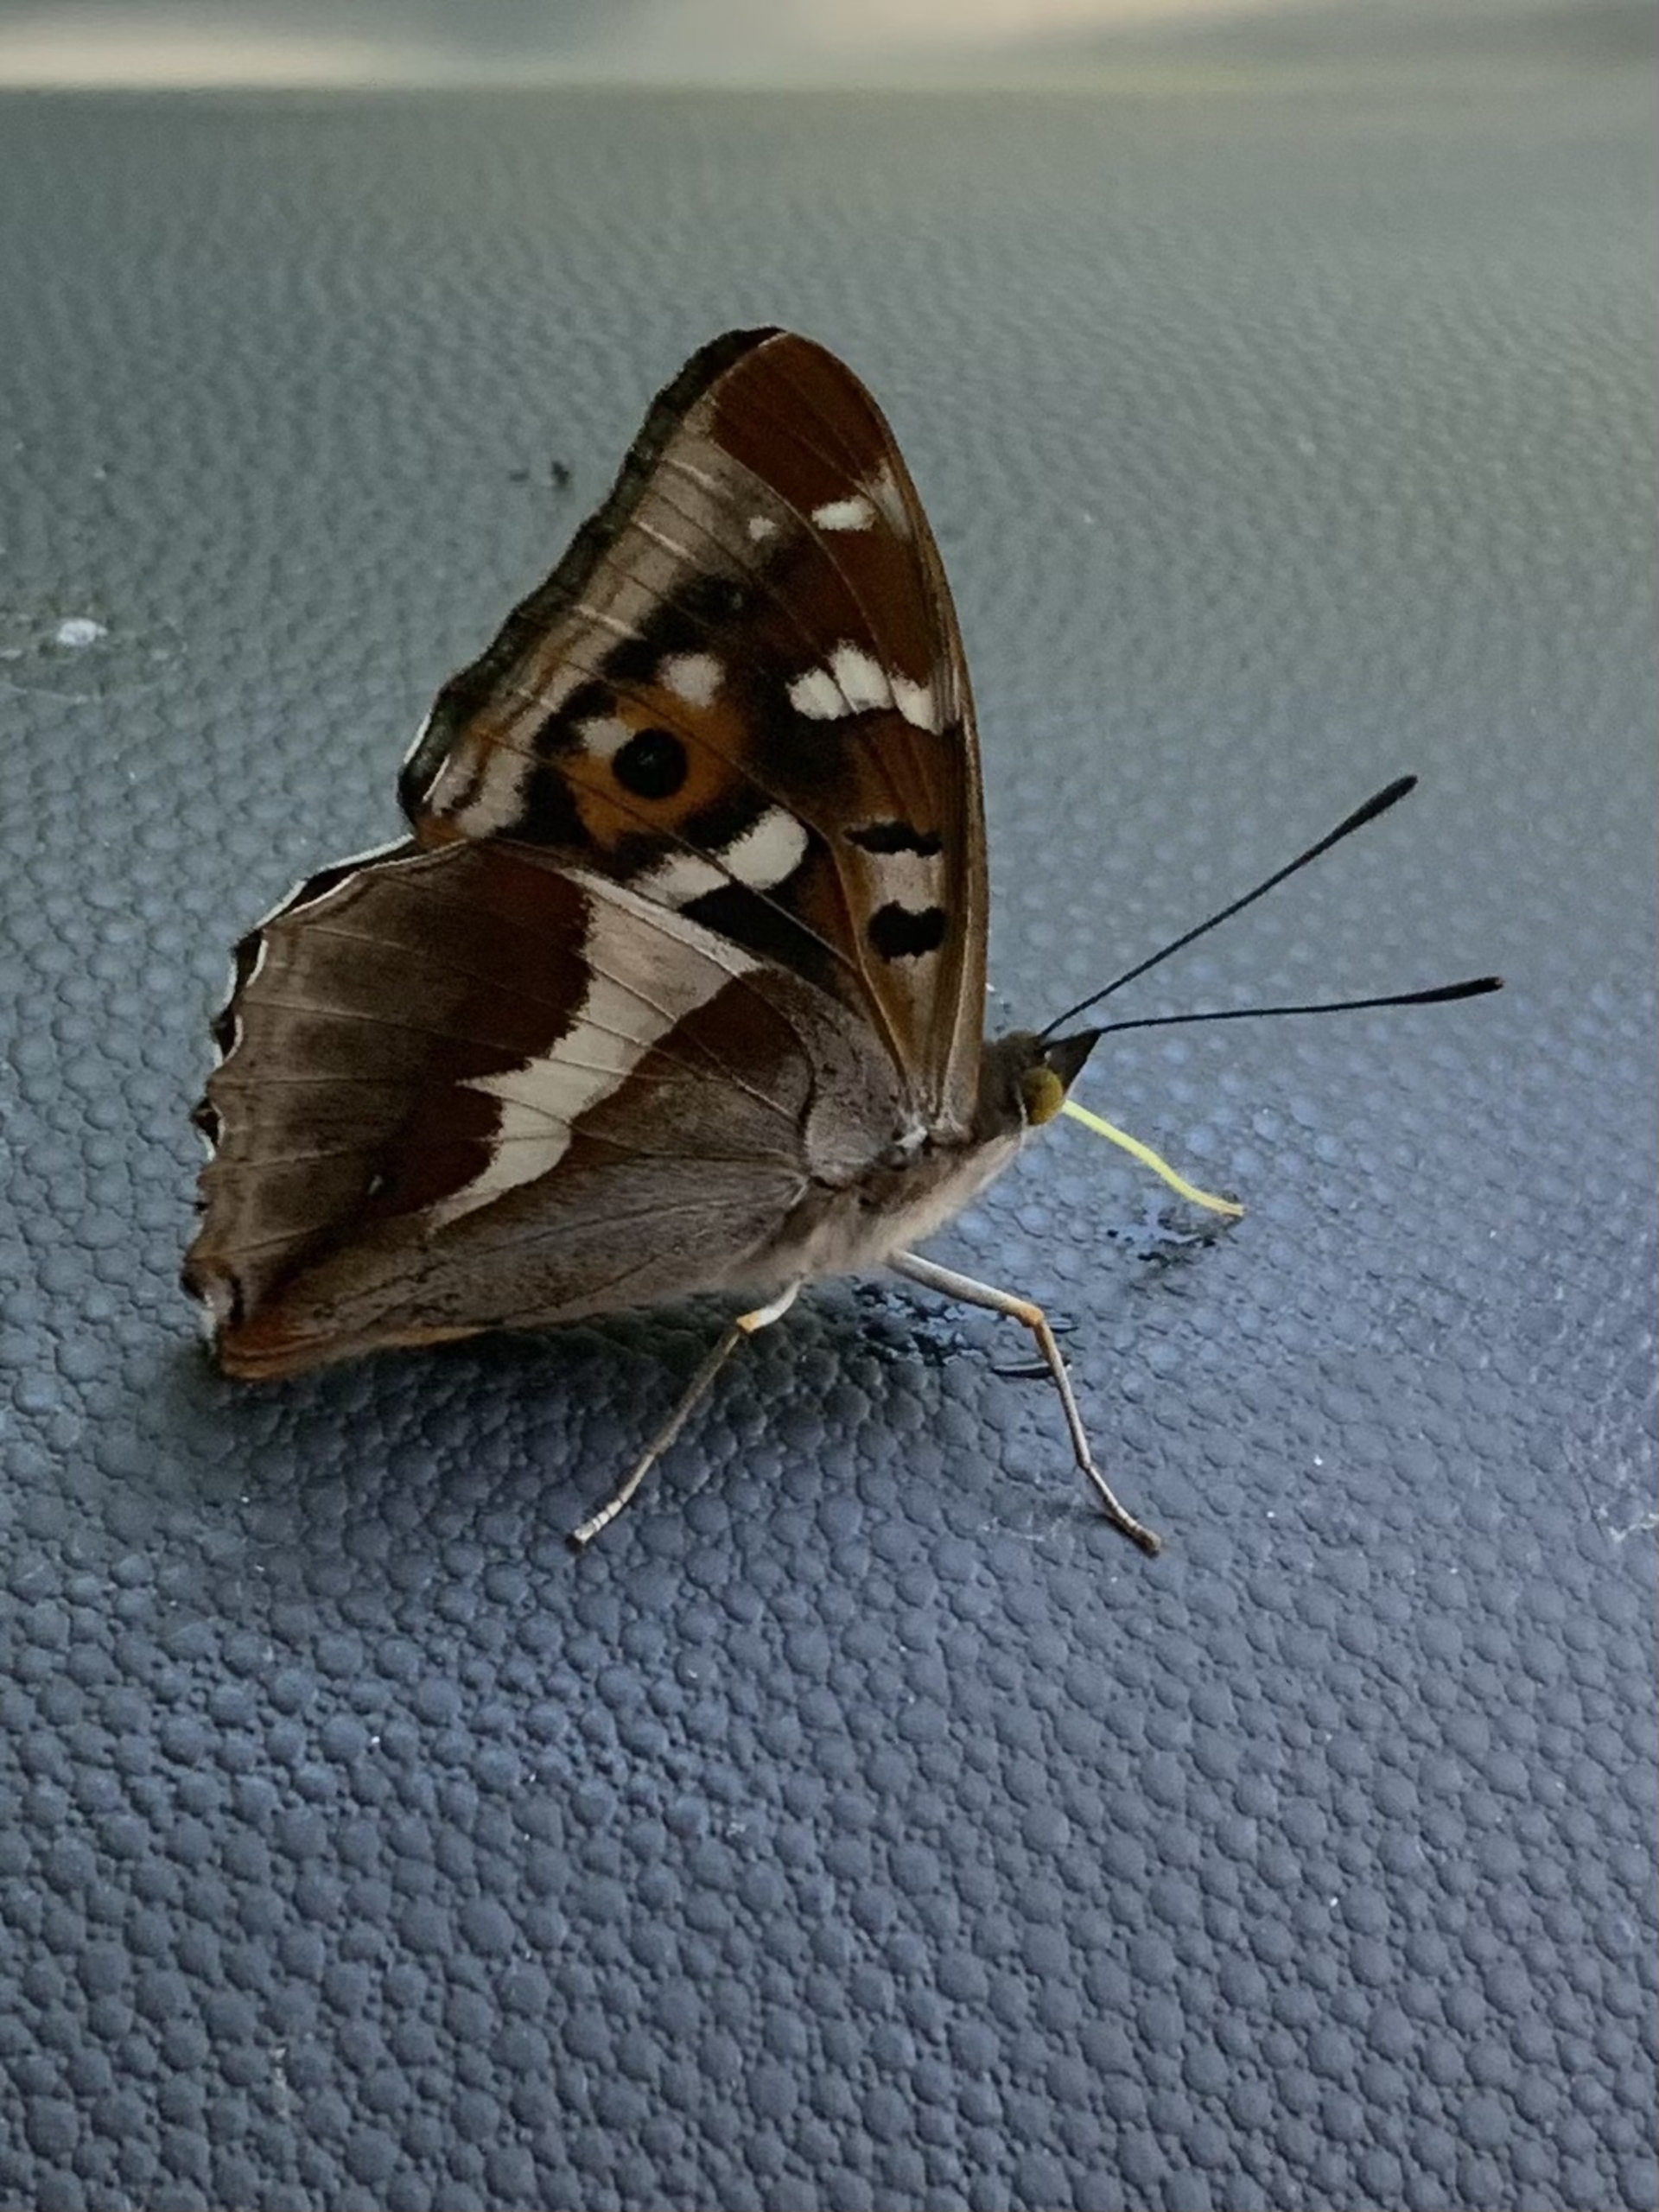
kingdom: Animalia
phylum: Arthropoda
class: Insecta
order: Lepidoptera
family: Nymphalidae
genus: Apatura
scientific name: Apatura iris
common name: Iris
